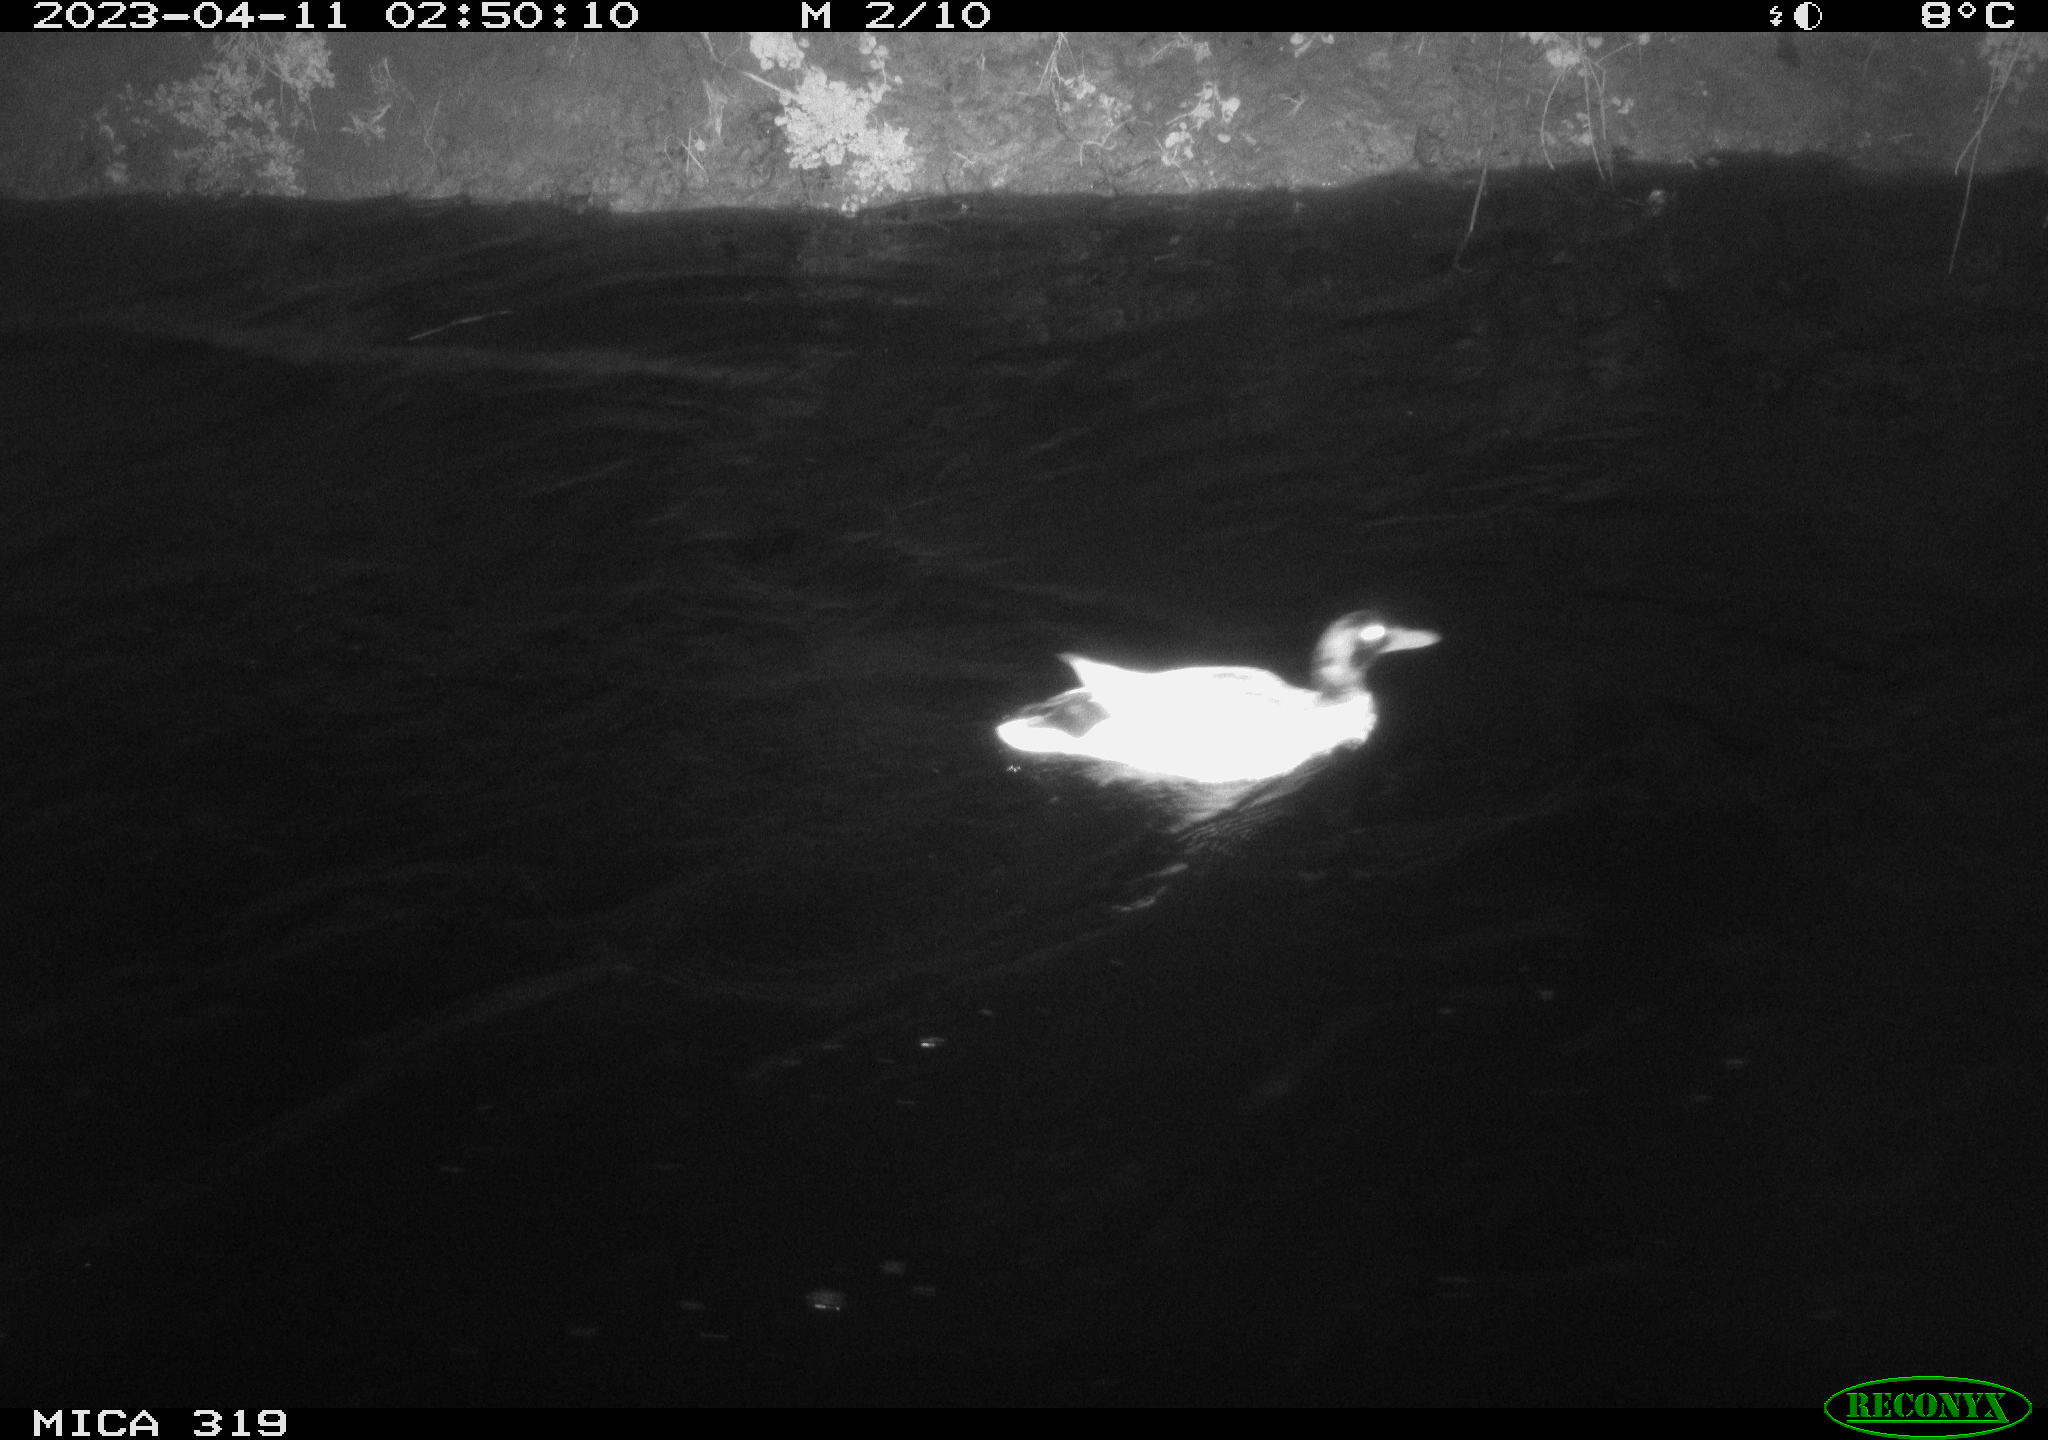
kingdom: Animalia
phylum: Chordata
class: Aves
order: Anseriformes
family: Anatidae
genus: Anas
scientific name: Anas
